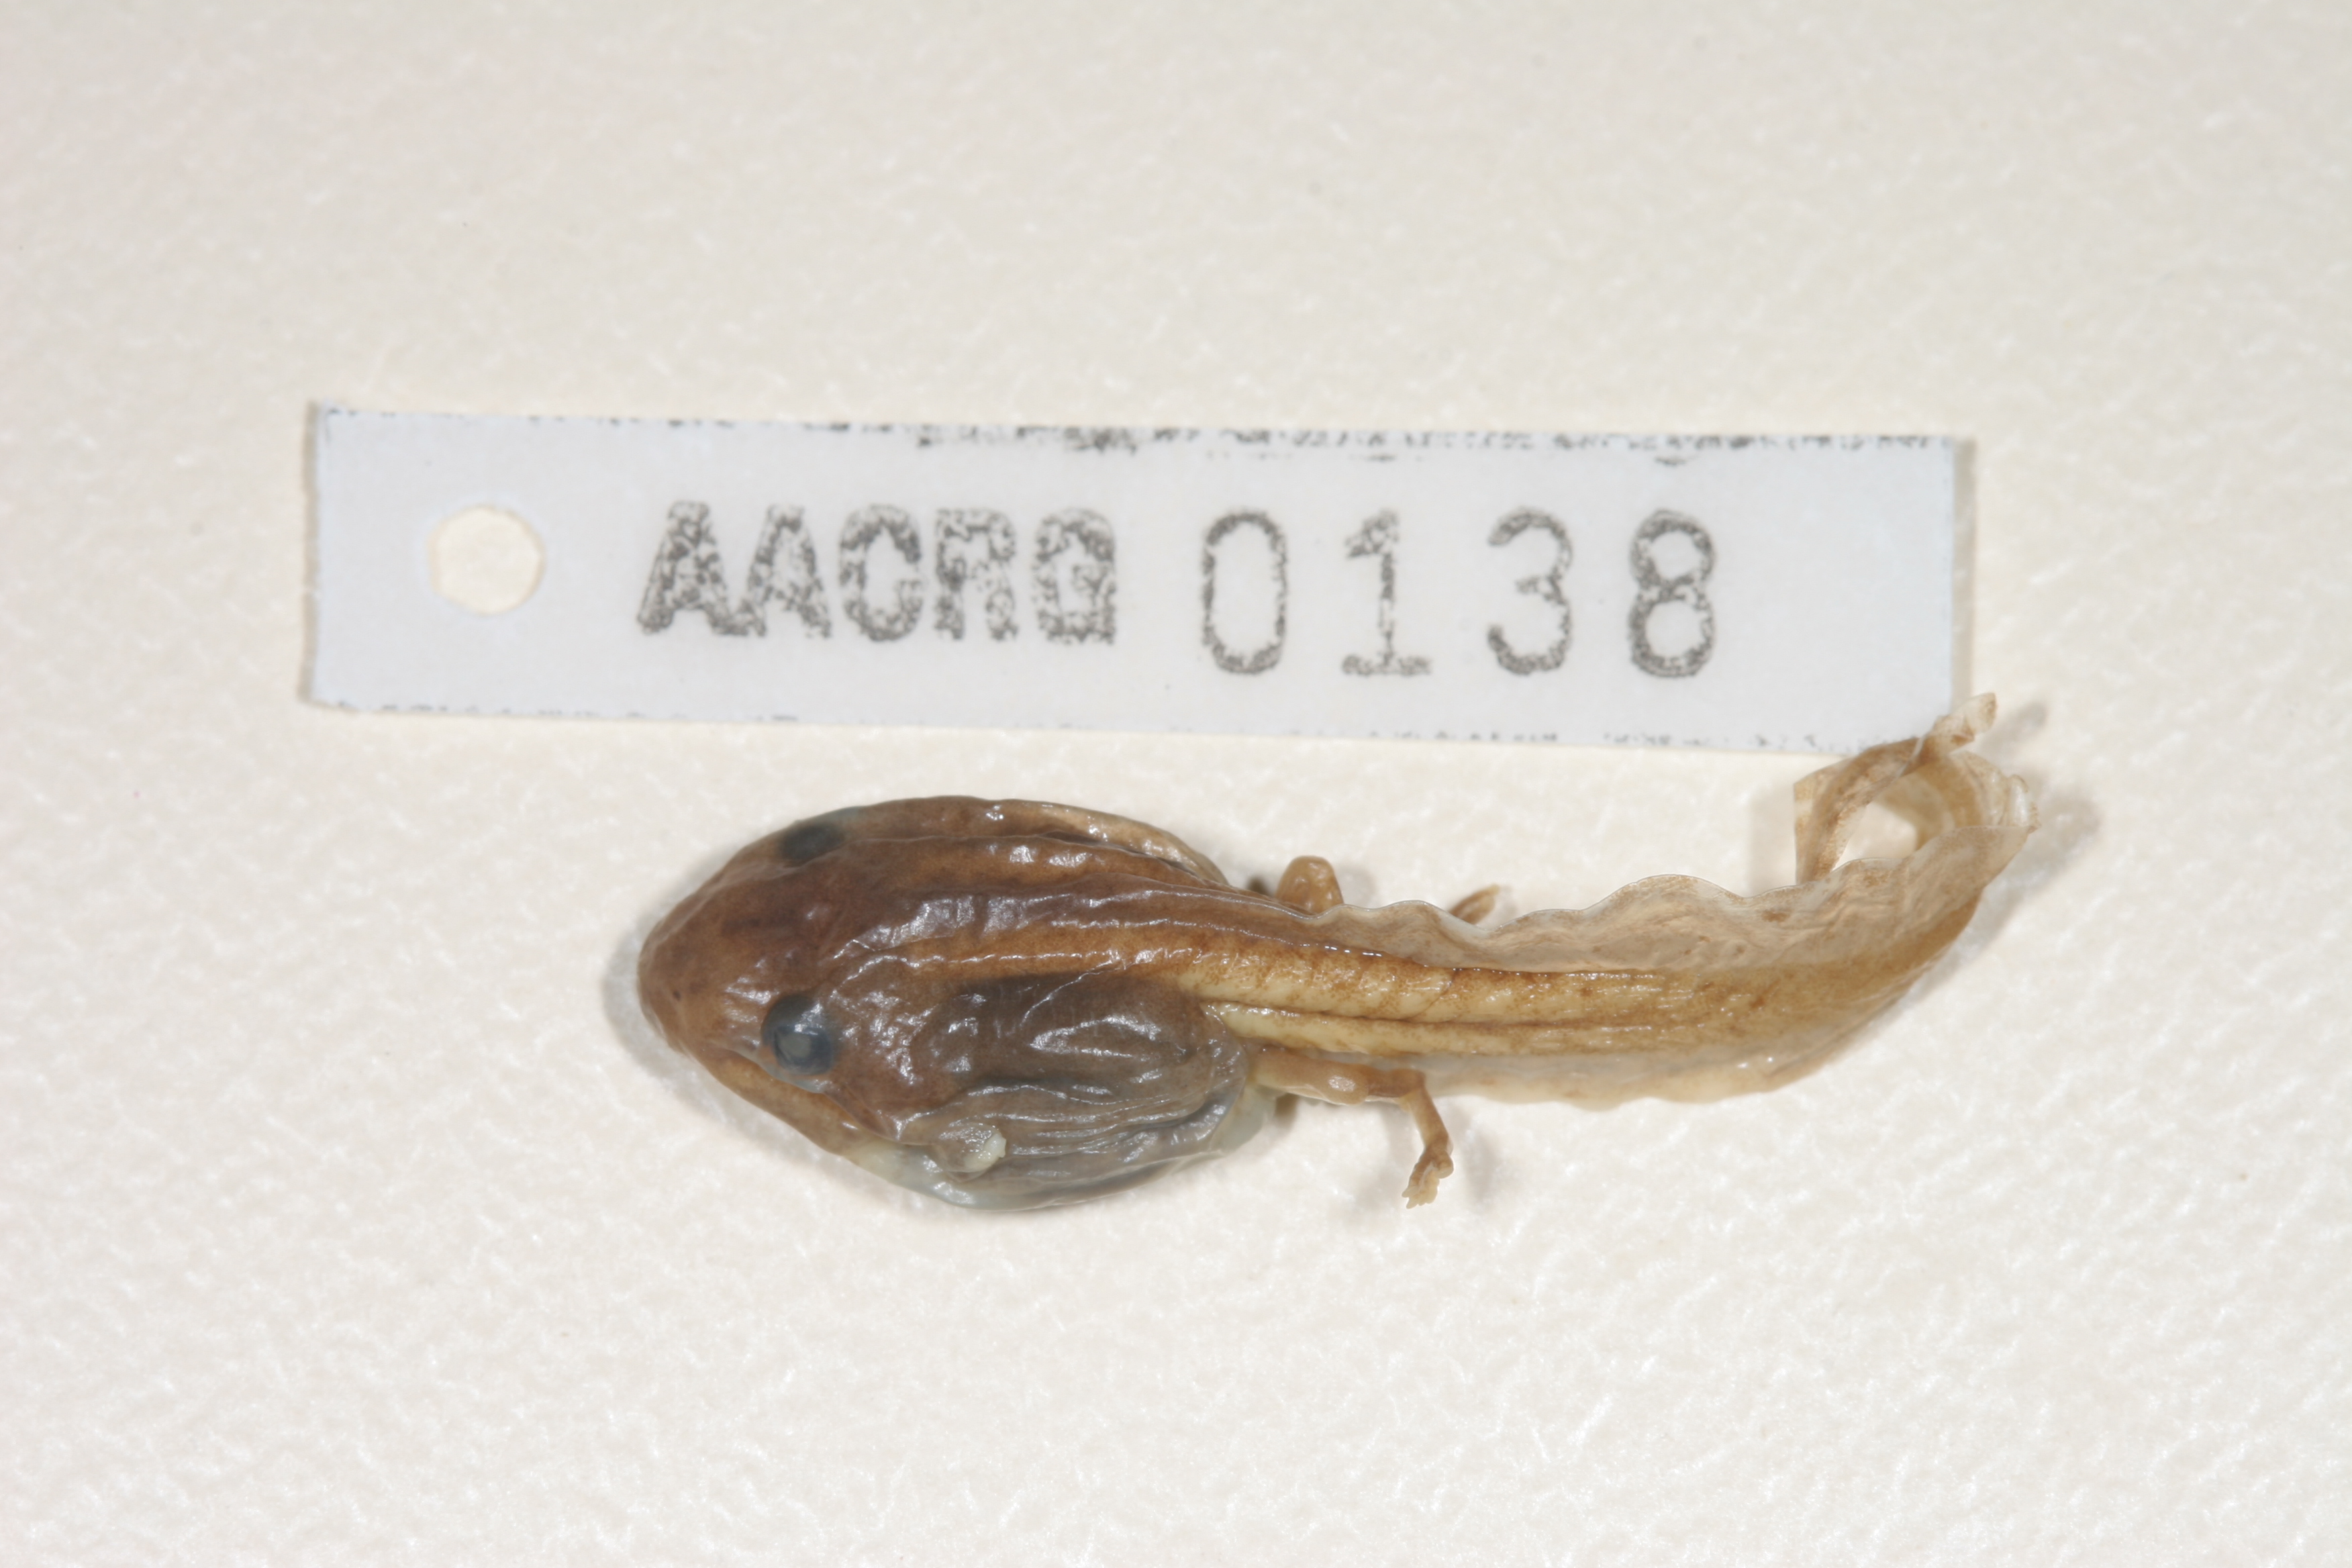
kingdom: Animalia
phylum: Chordata
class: Amphibia
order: Anura
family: Hyperoliidae
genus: Hyperolius
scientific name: Hyperolius semidiscus
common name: Yellow-striped reed frog
